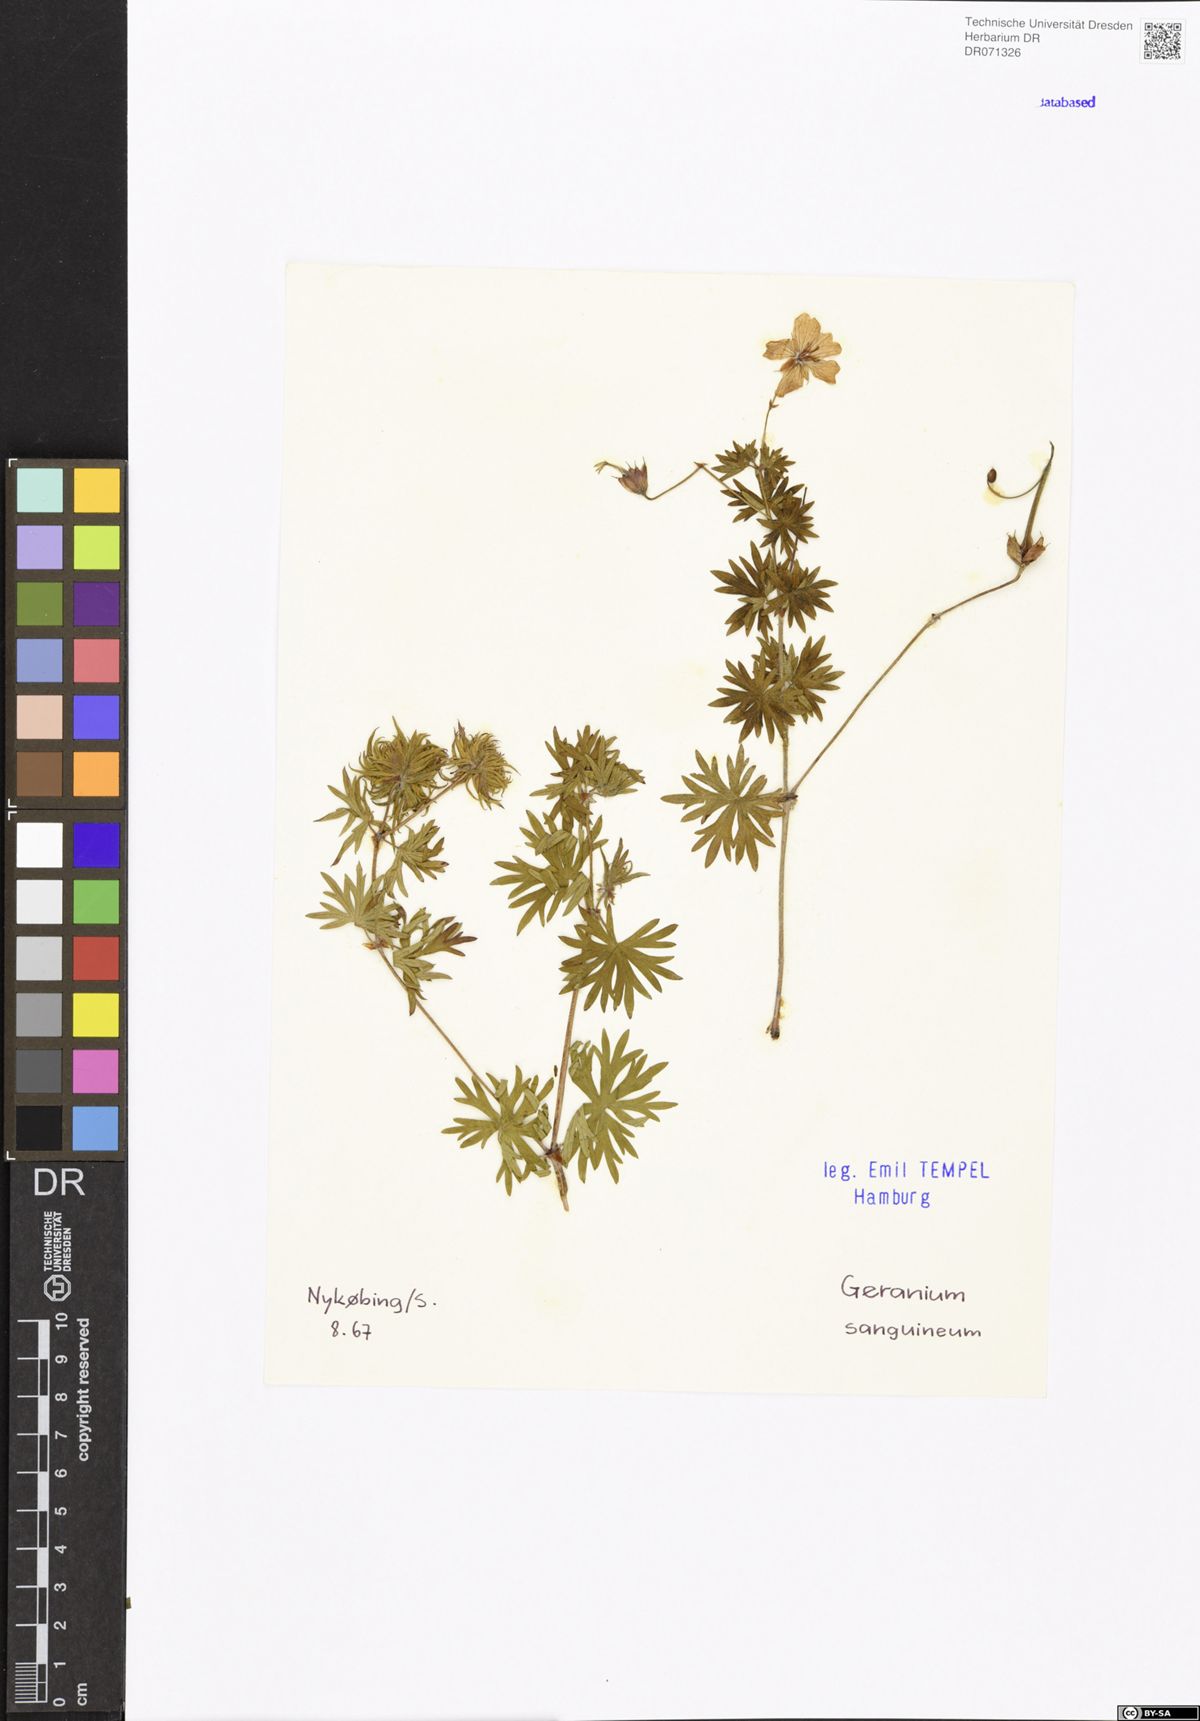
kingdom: Plantae
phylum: Tracheophyta
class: Magnoliopsida
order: Geraniales
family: Geraniaceae
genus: Geranium
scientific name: Geranium sanguineum
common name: Bloody crane's-bill
